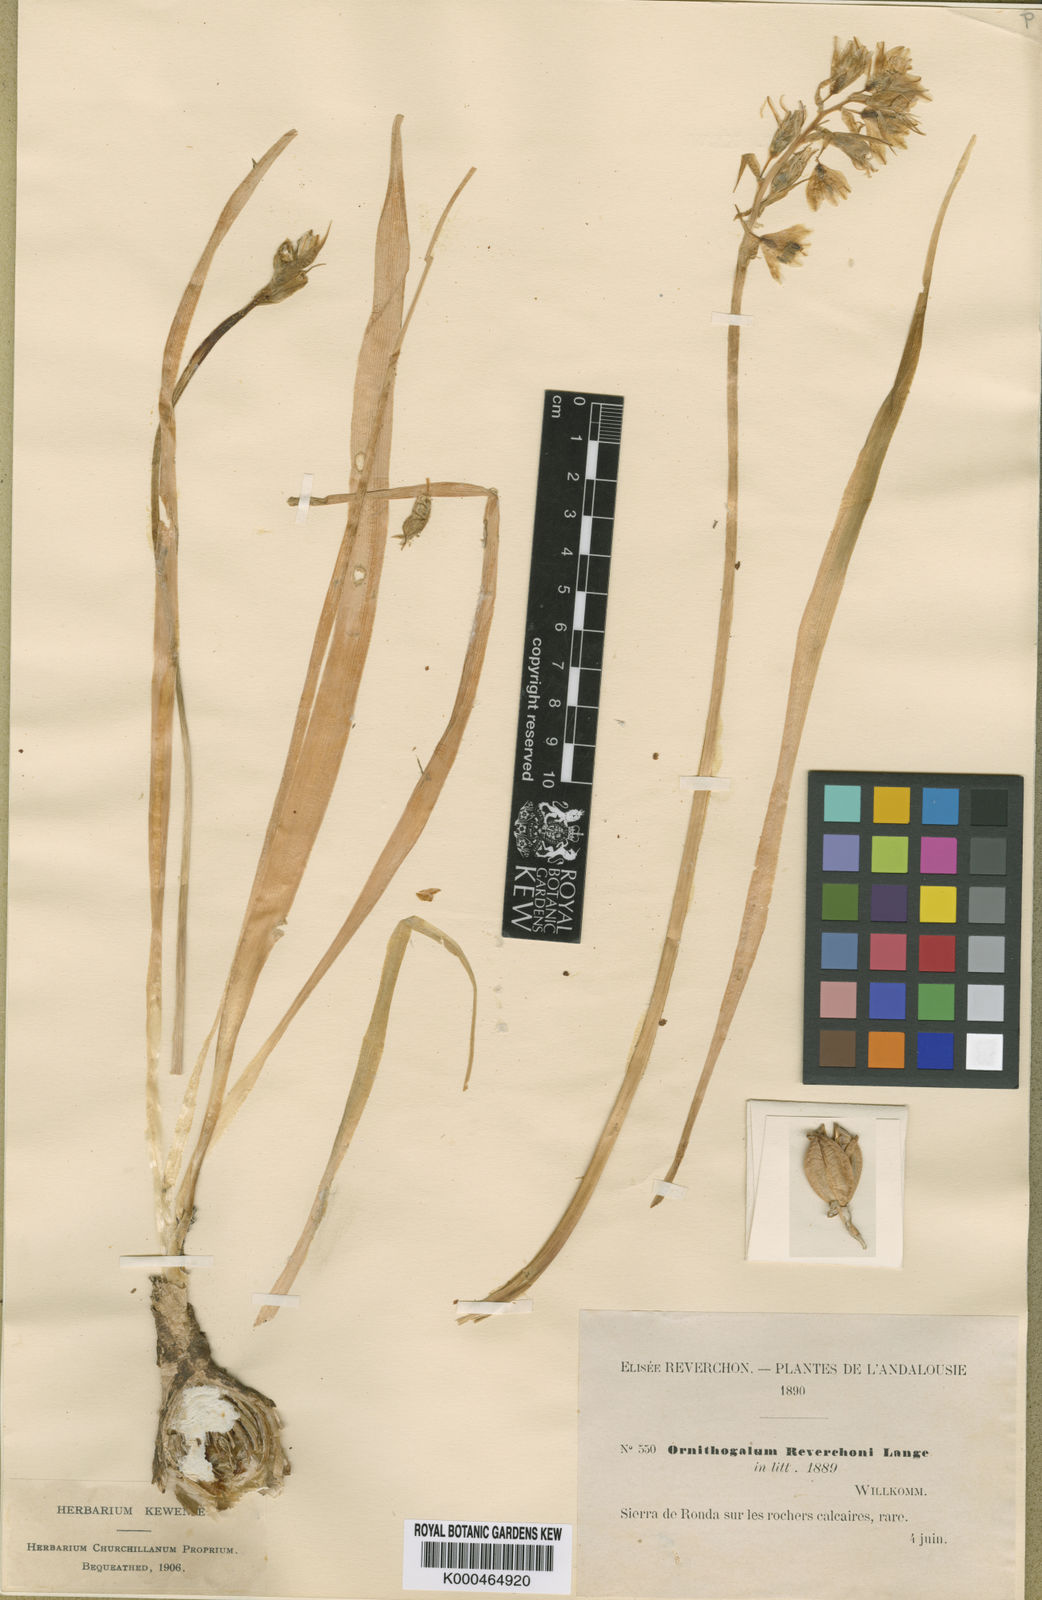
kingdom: Plantae
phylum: Tracheophyta
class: Liliopsida
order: Asparagales
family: Asparagaceae
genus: Ornithogalum
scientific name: Ornithogalum
